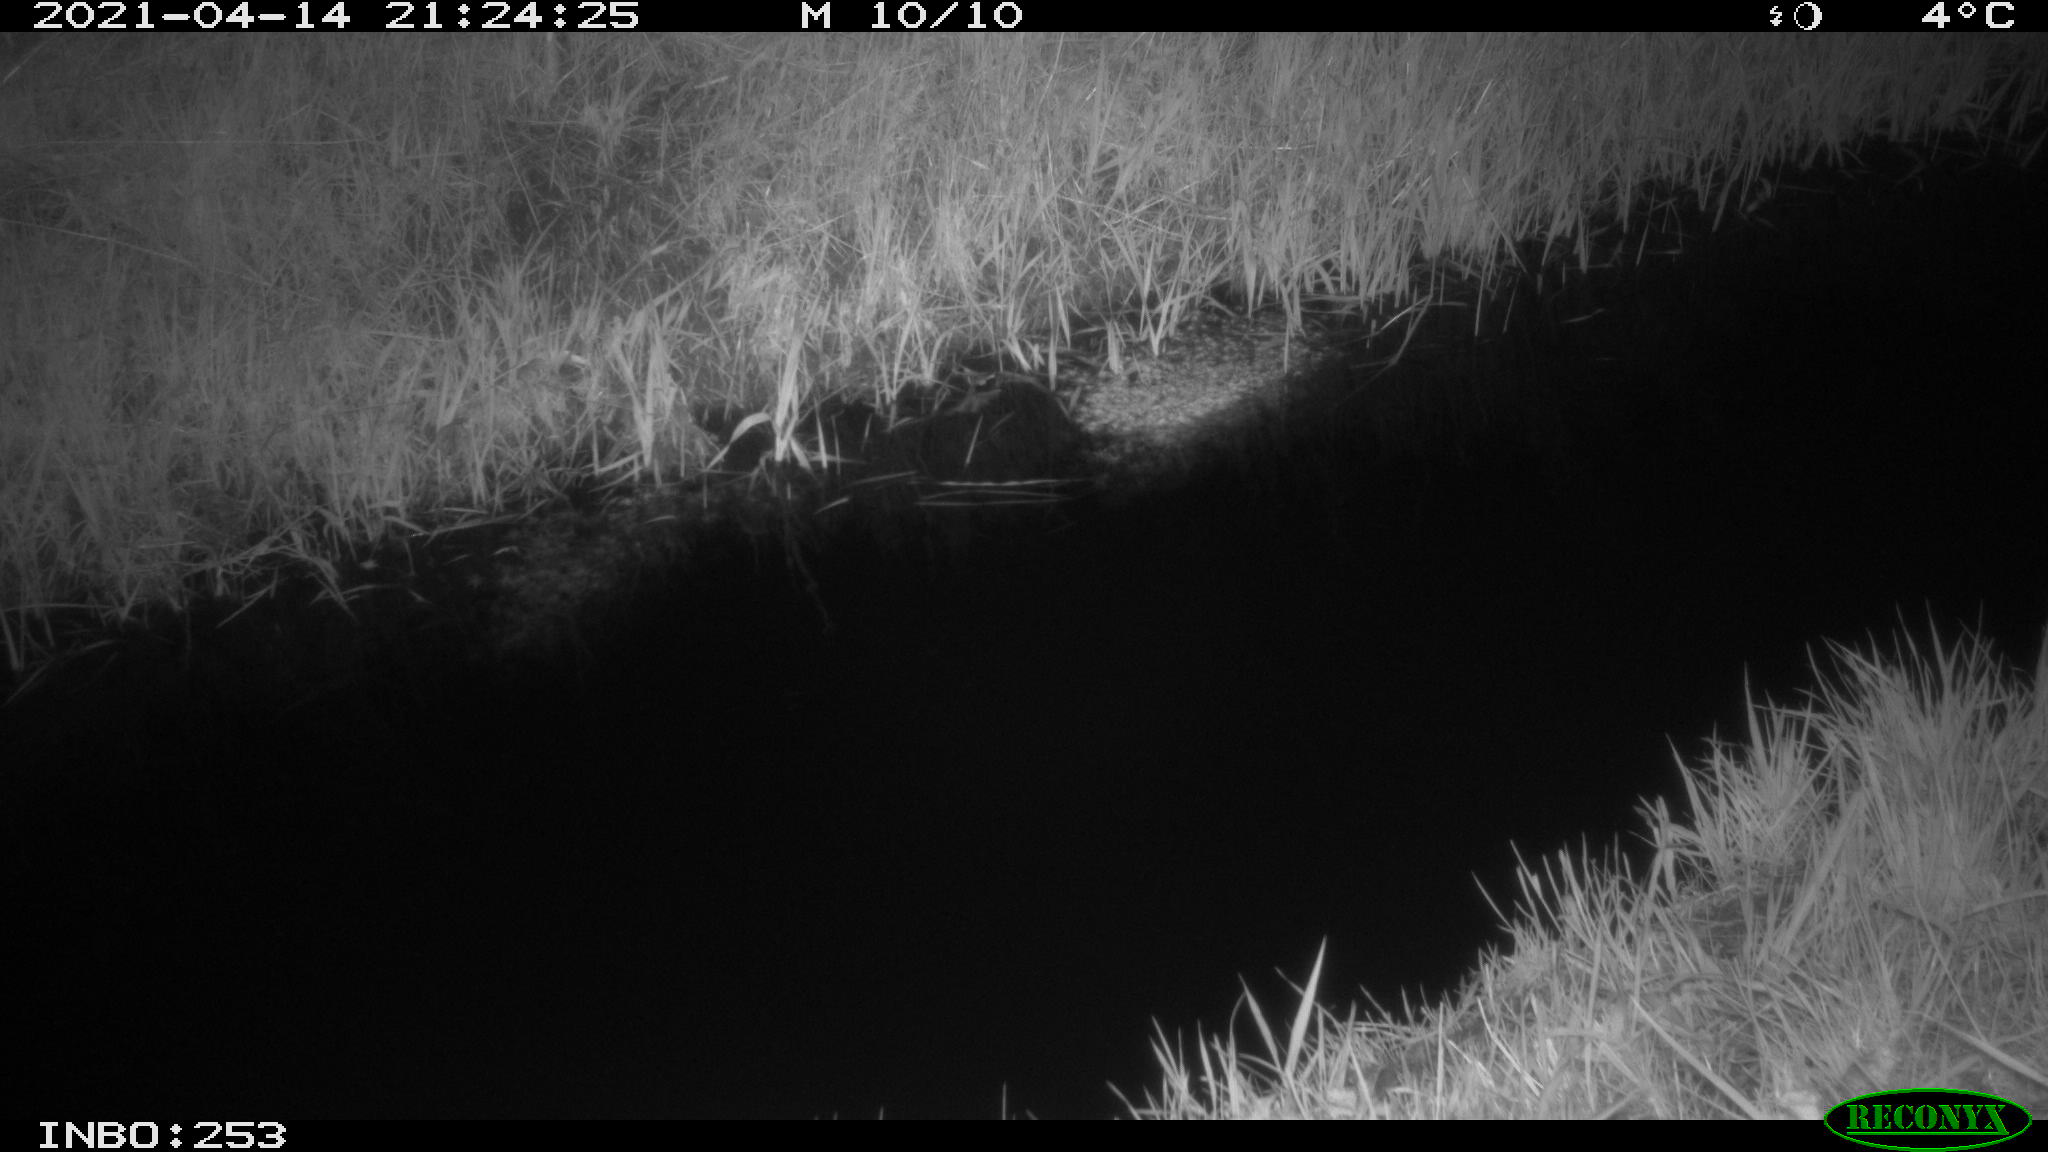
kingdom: Animalia
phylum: Chordata
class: Aves
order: Anseriformes
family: Anatidae
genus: Anas
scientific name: Anas platyrhynchos
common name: Mallard
